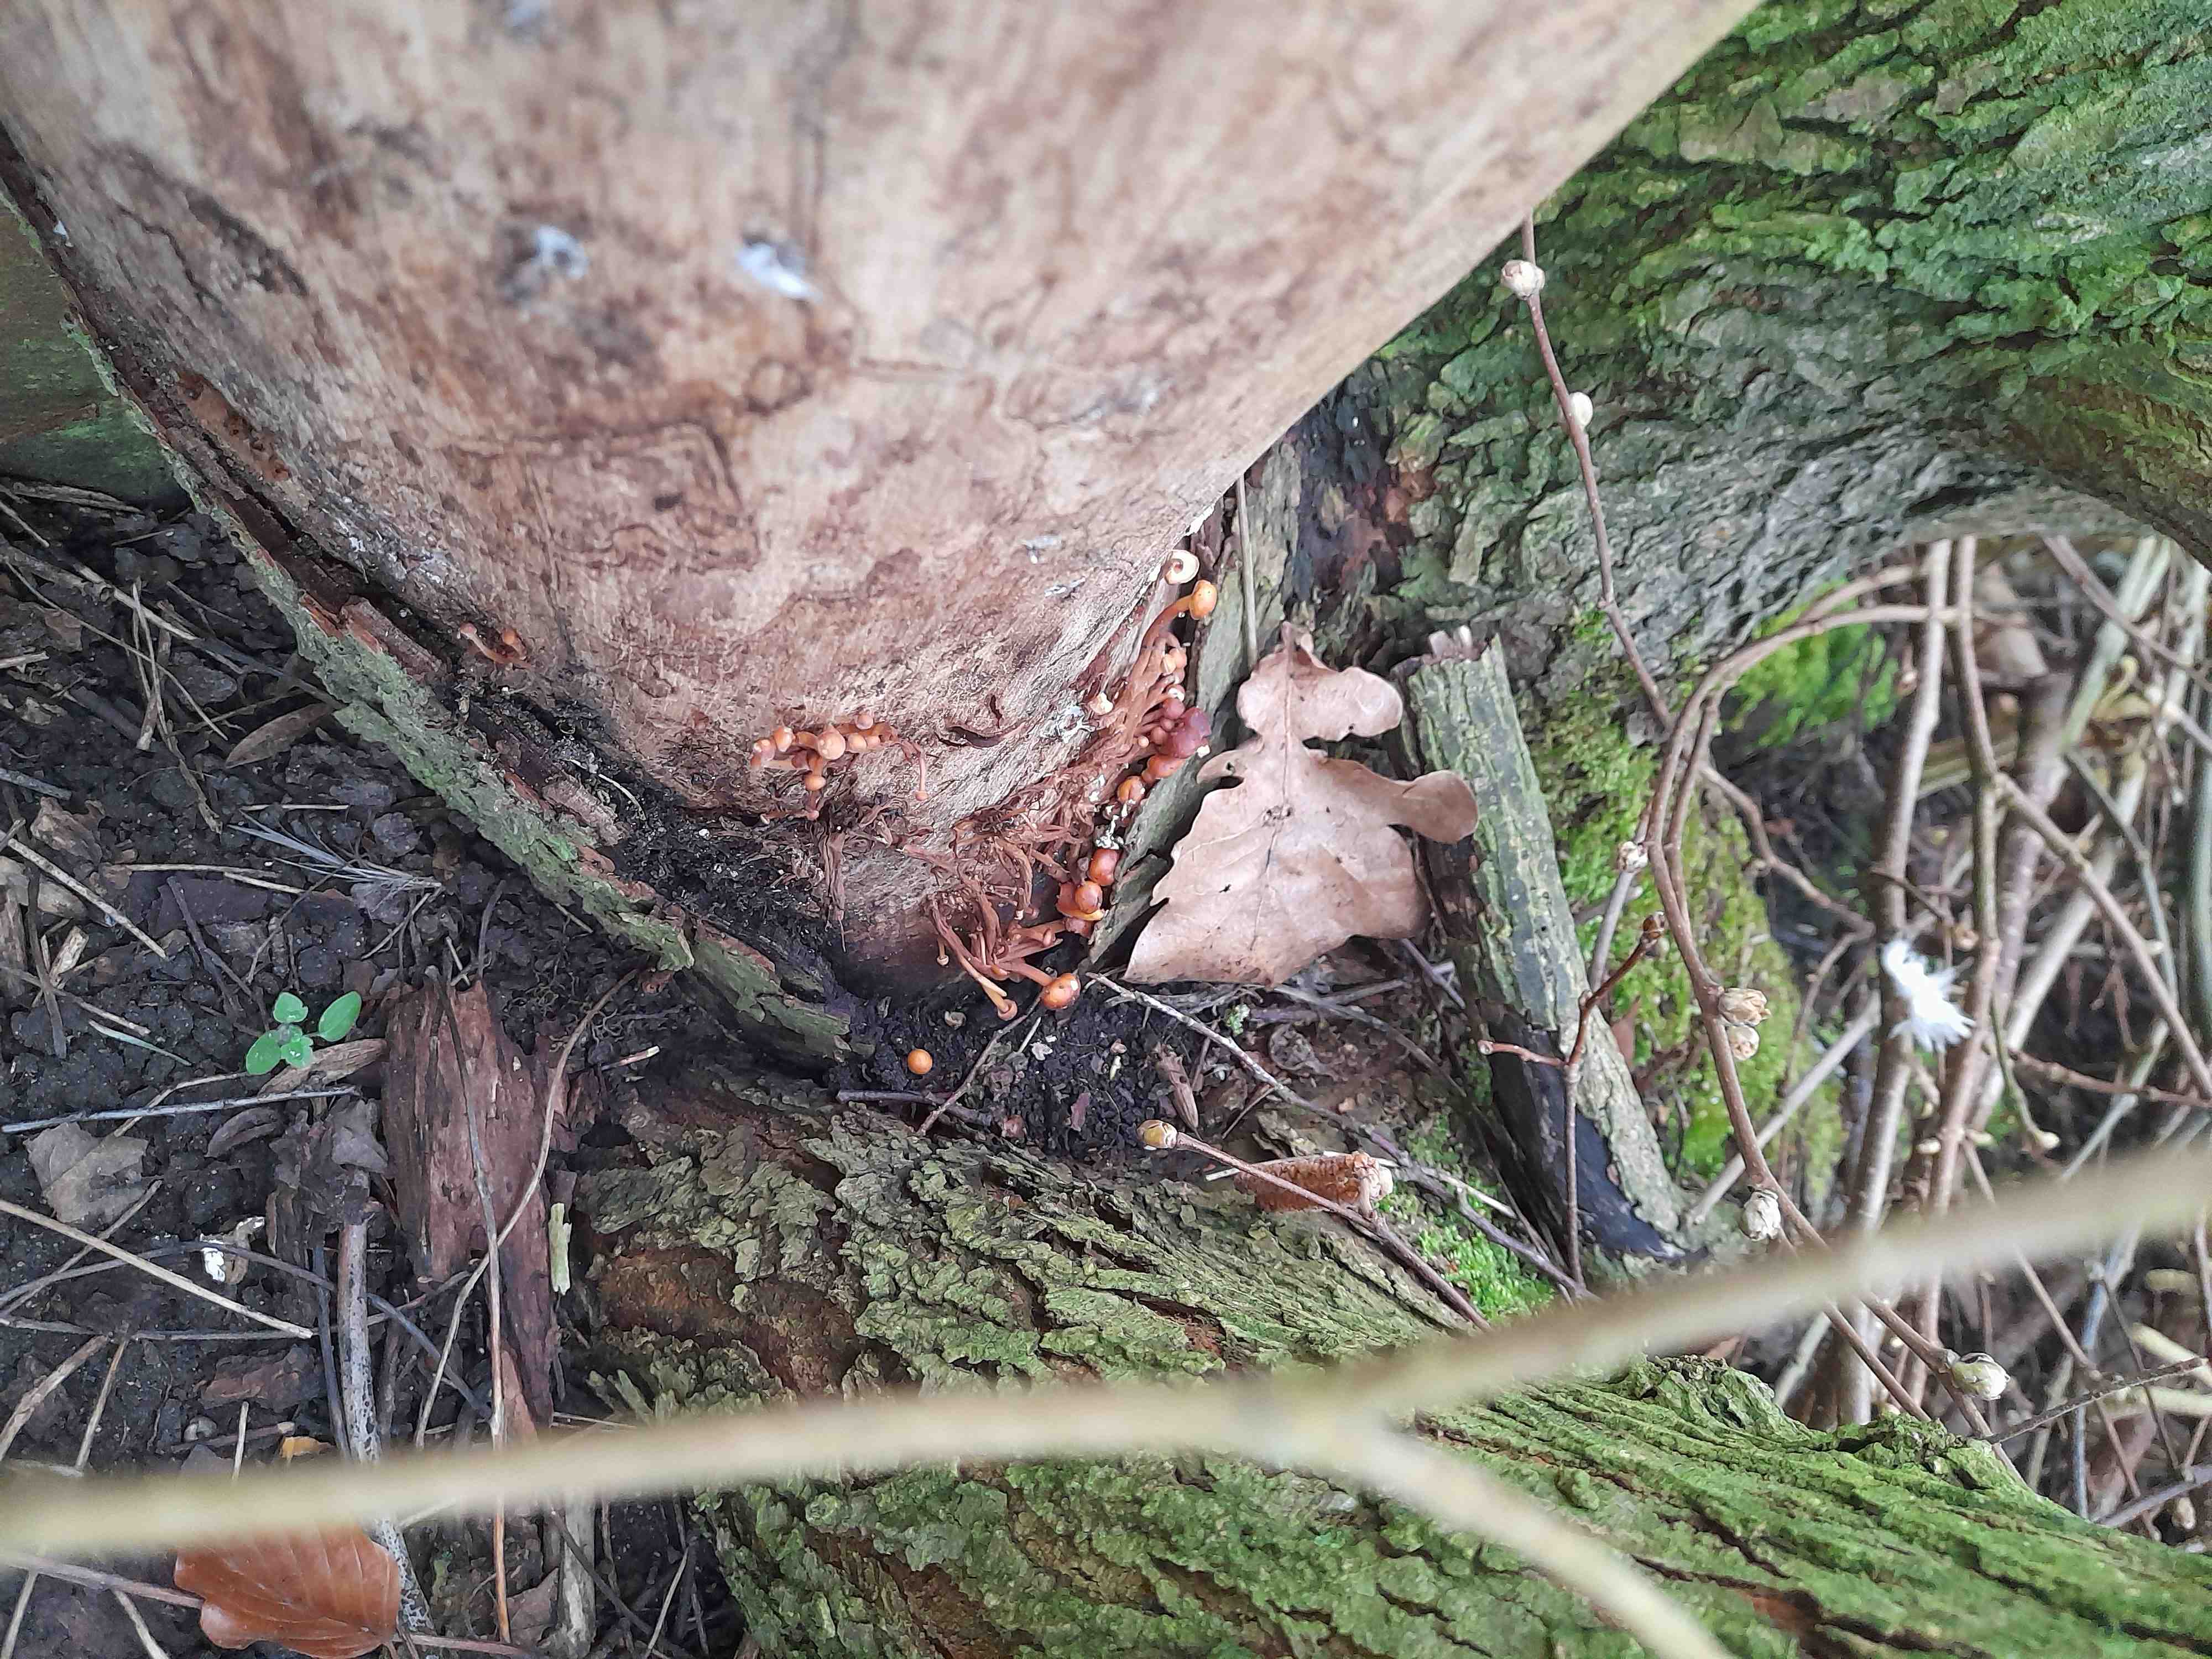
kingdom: Fungi
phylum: Basidiomycota
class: Agaricomycetes
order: Agaricales
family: Physalacriaceae
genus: Flammulina
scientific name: Flammulina
